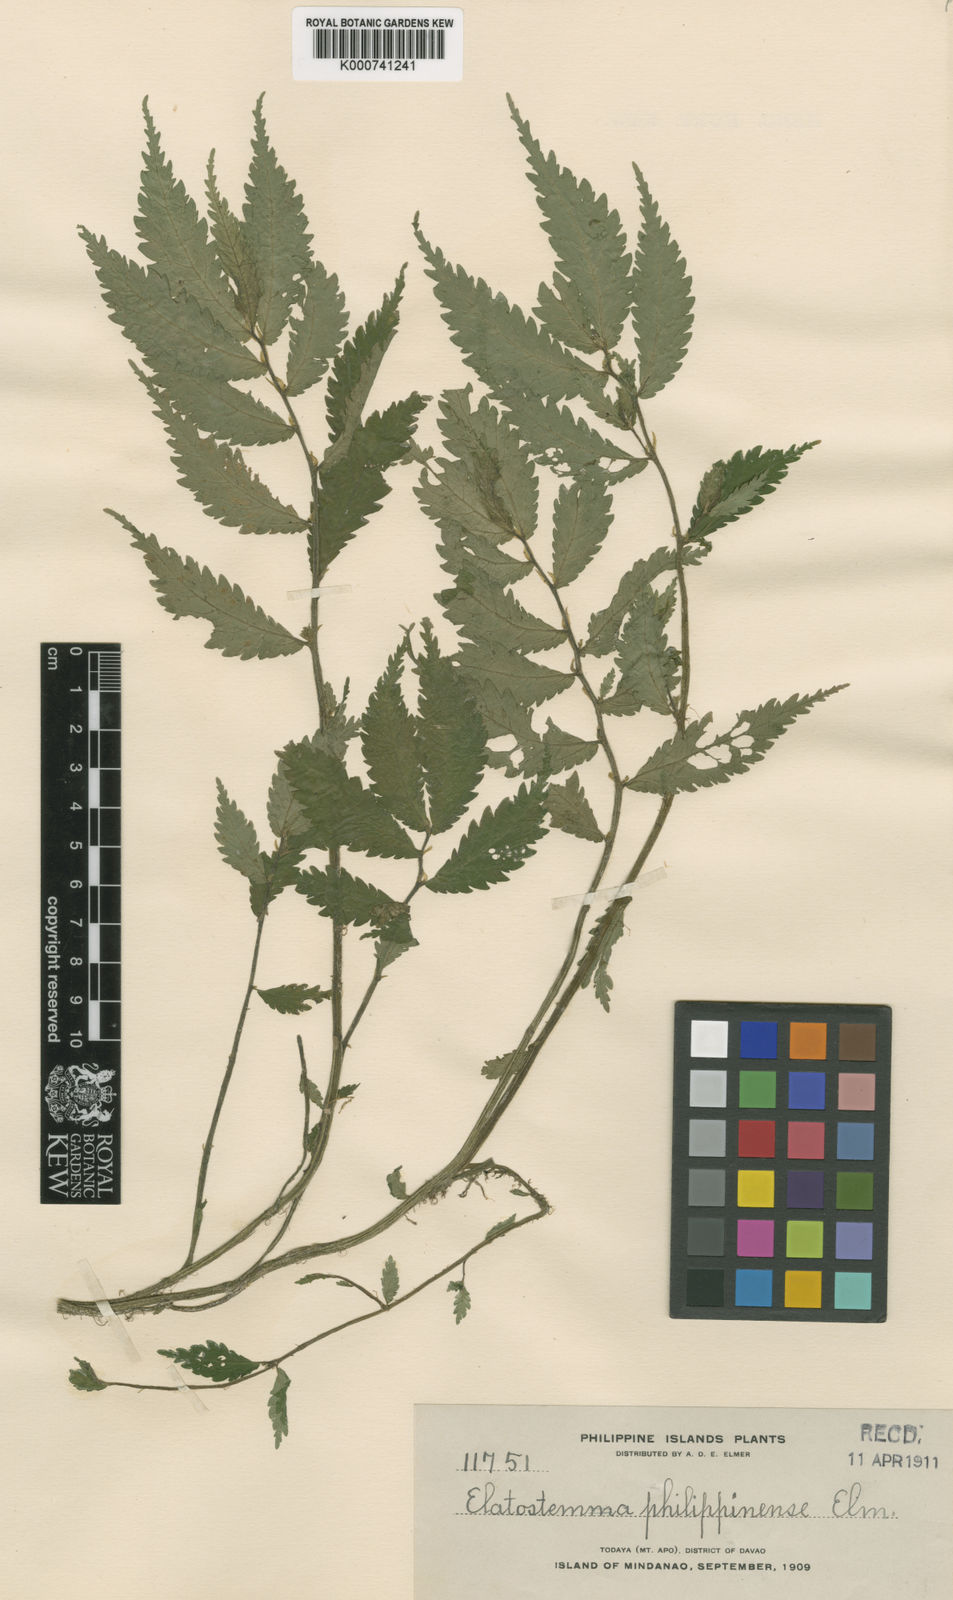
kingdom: Plantae
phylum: Tracheophyta
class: Magnoliopsida
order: Rosales
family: Urticaceae
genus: Elatostema
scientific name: Elatostema philippinense
